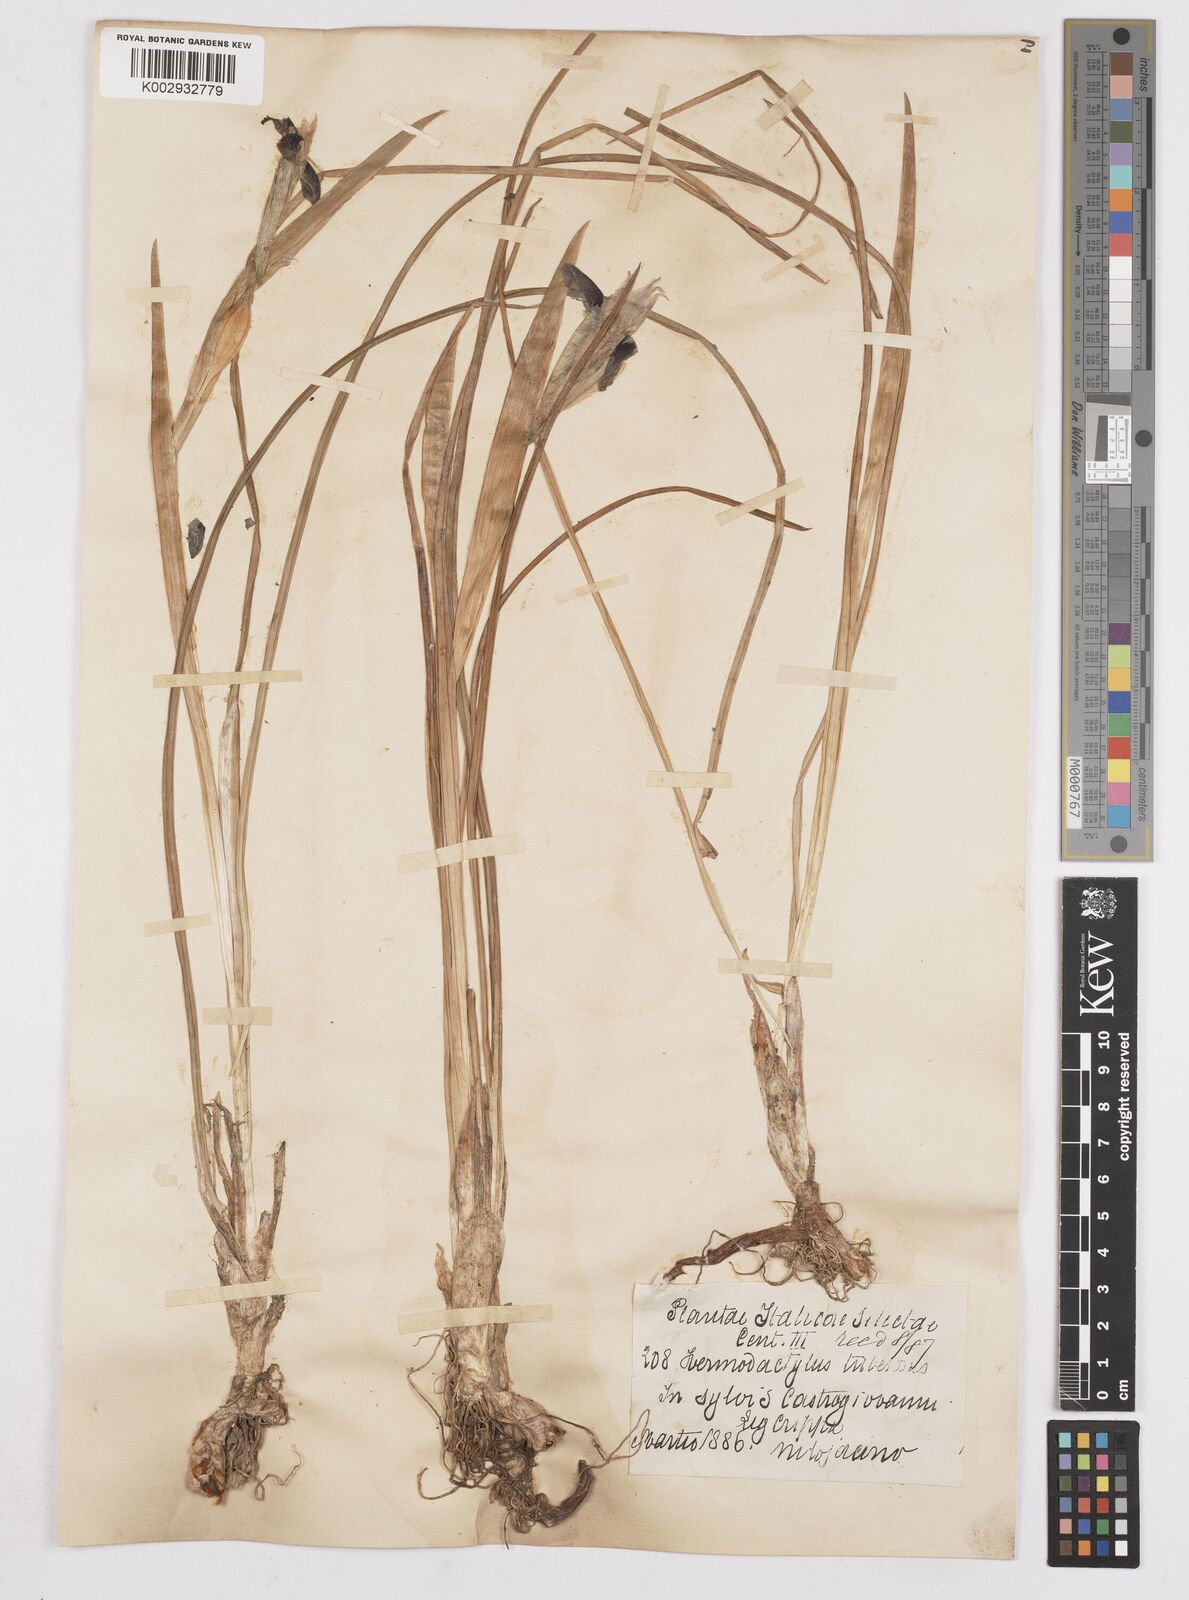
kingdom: Plantae
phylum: Tracheophyta
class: Liliopsida
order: Asparagales
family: Iridaceae
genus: Iris
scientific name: Iris tuberosa
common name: Snake's-head iris
